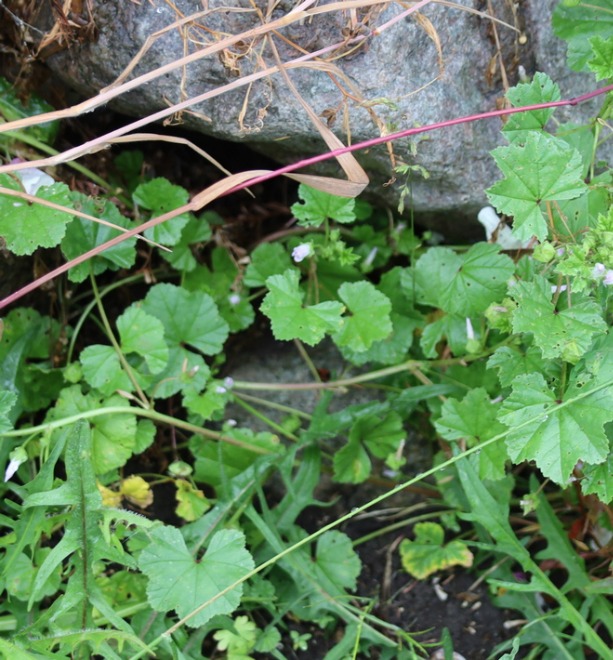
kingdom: Plantae
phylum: Tracheophyta
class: Magnoliopsida
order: Malvales
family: Malvaceae
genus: Malva
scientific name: Malva neglecta
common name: Rundbladet katost
